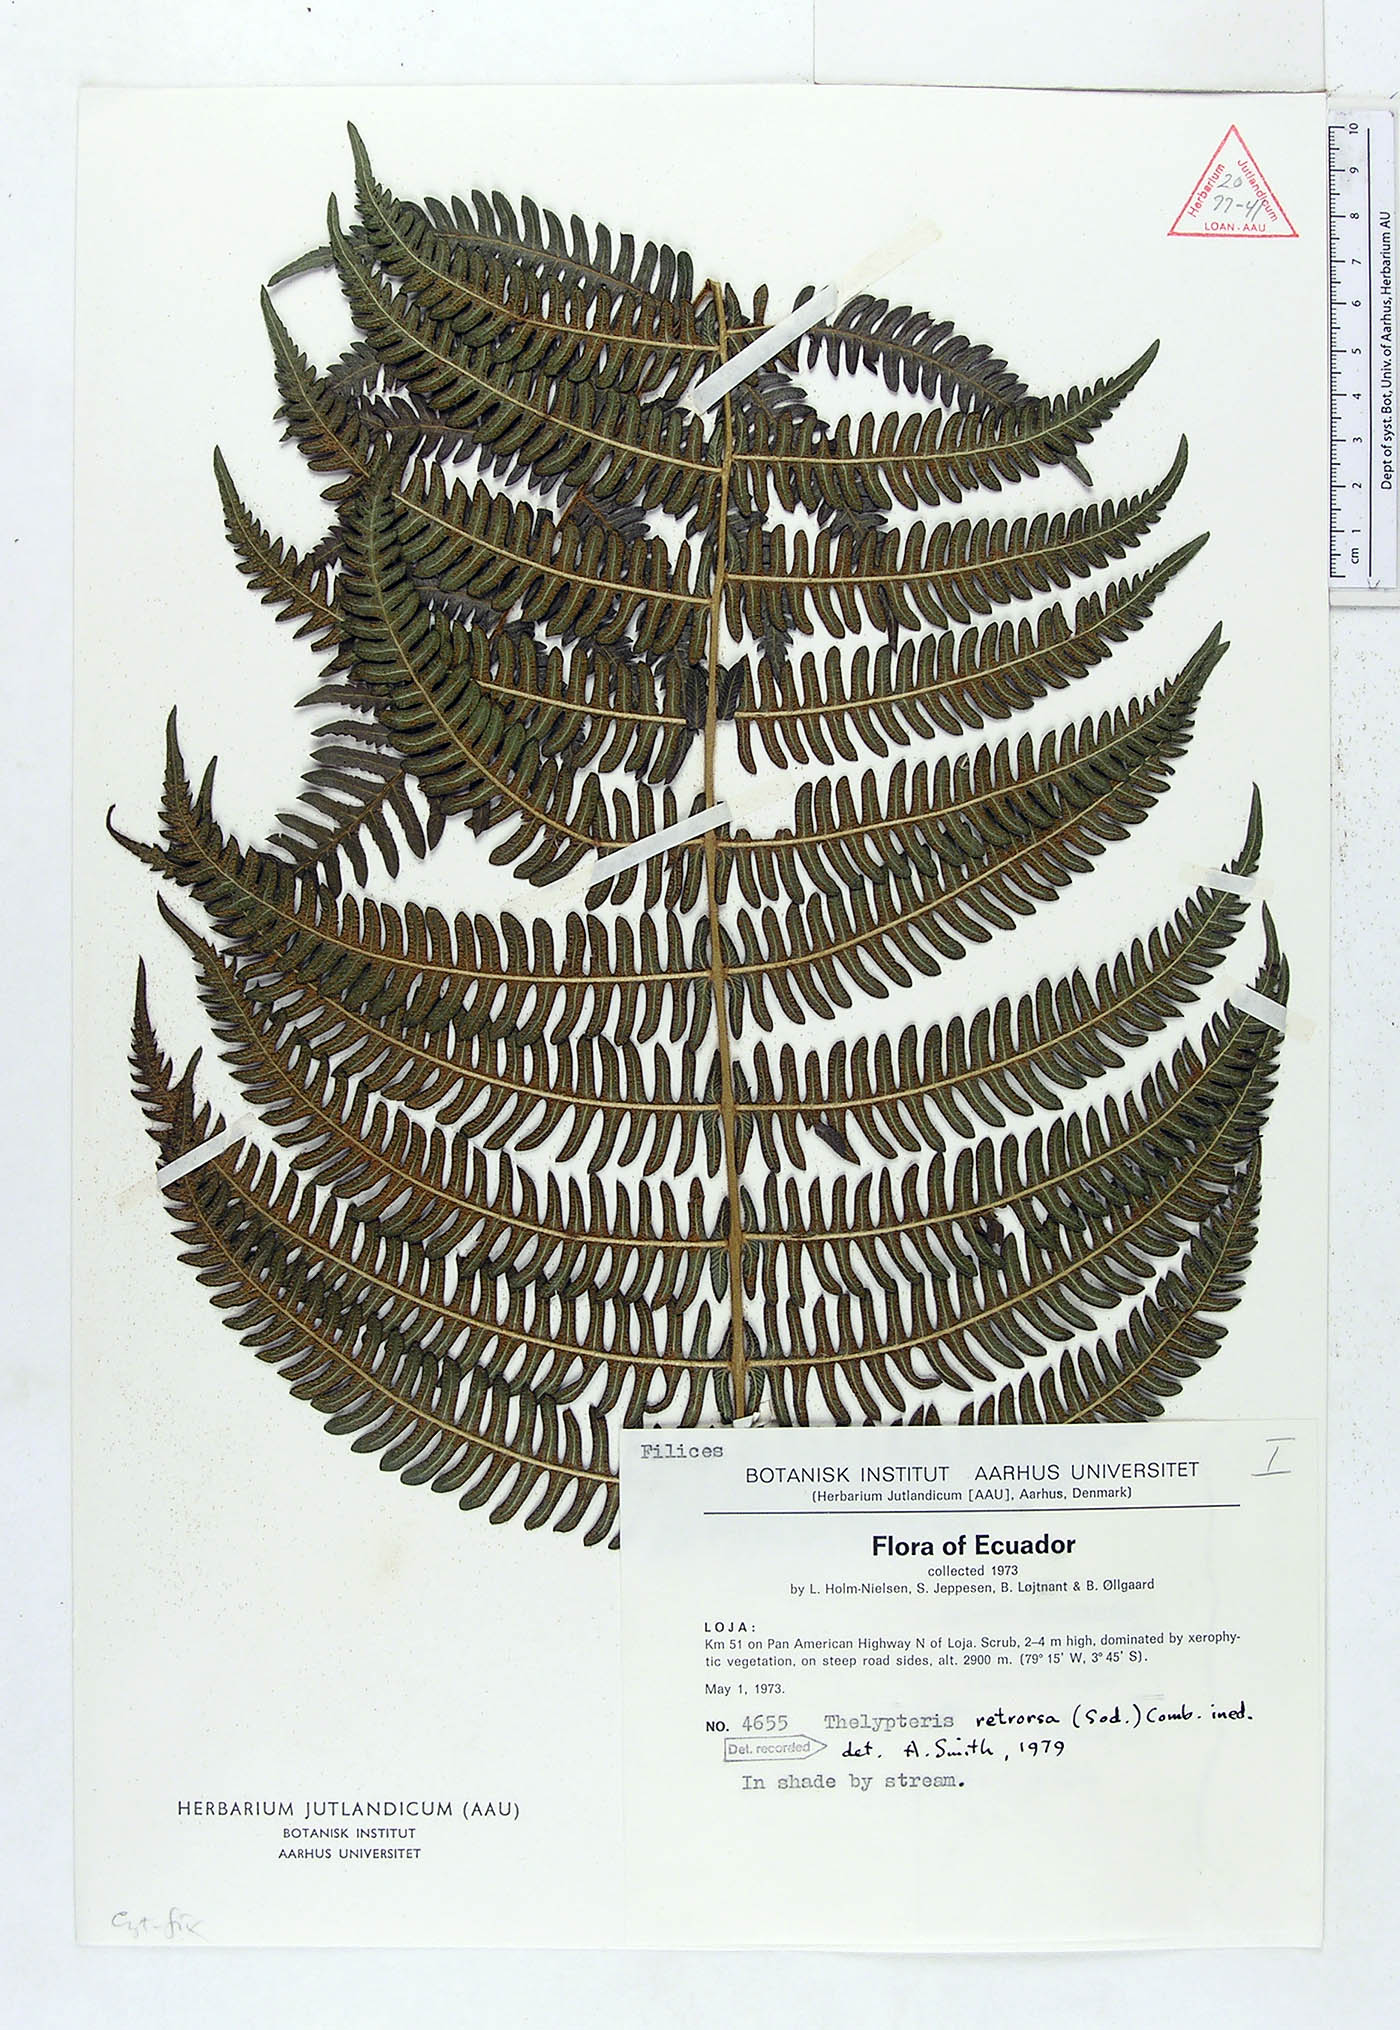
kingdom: Plantae
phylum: Tracheophyta
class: Polypodiopsida
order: Polypodiales
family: Thelypteridaceae
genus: Amauropelta
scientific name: Amauropelta pilosohispida
